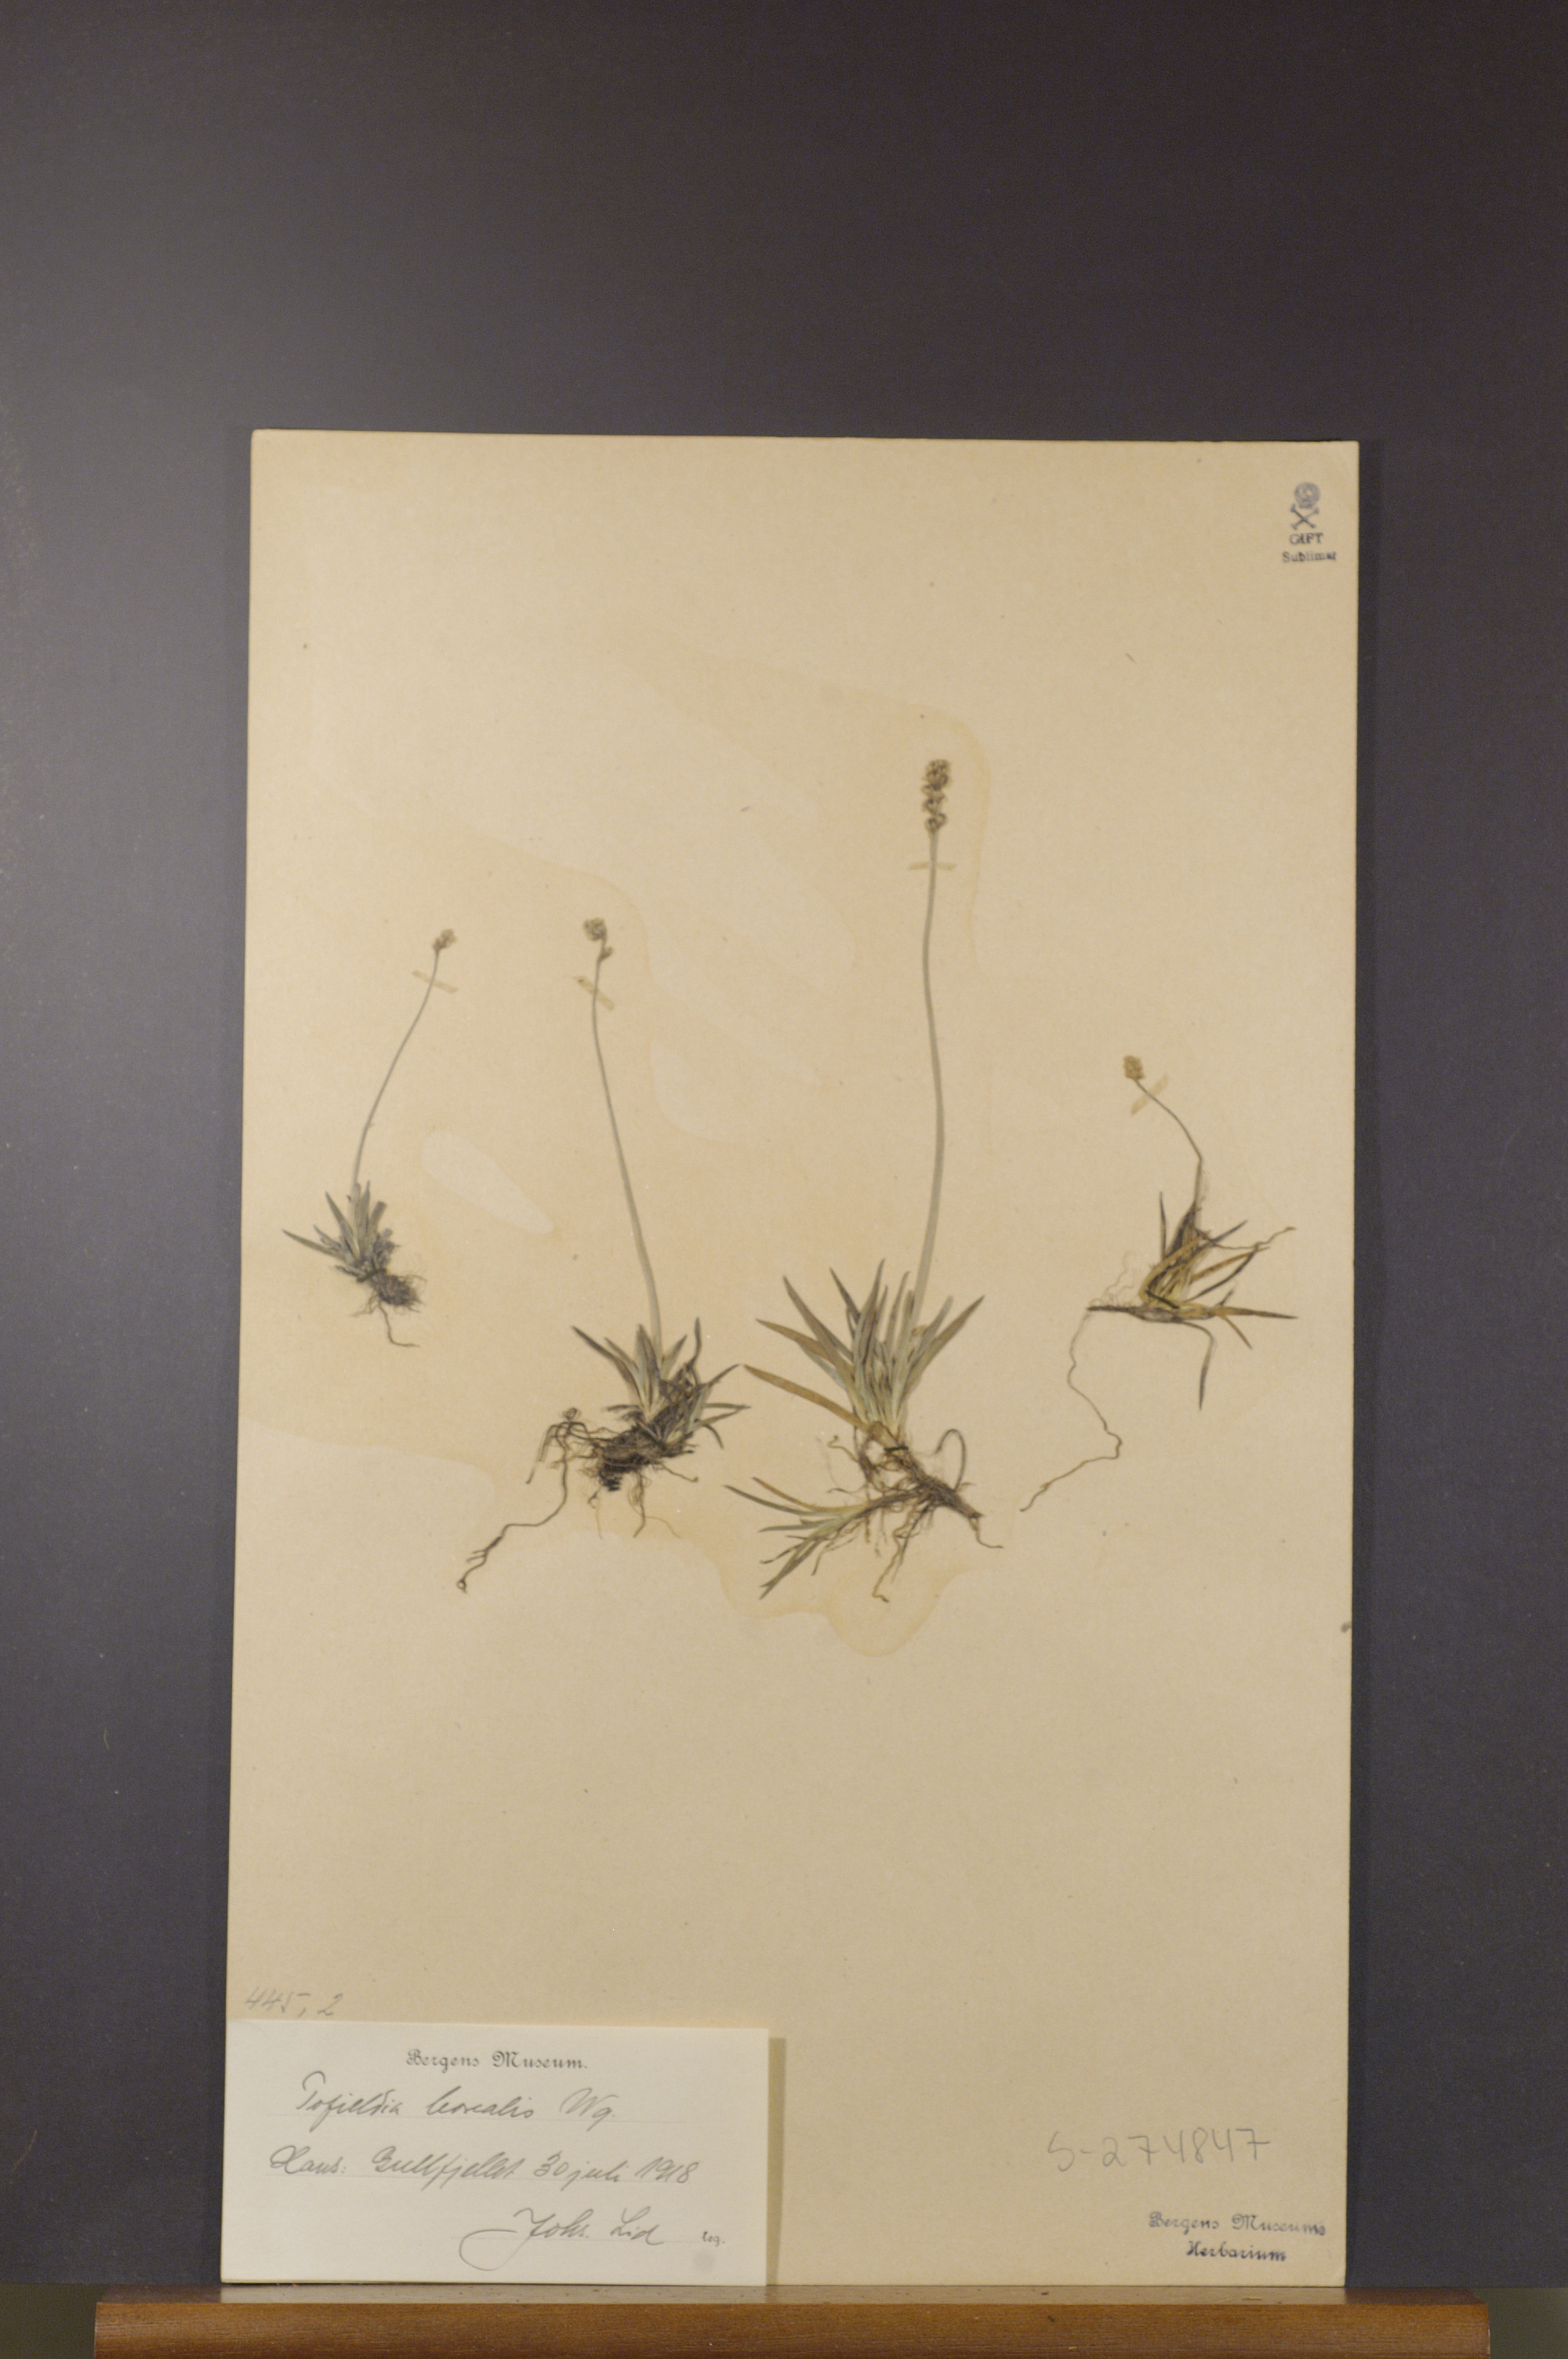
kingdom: Plantae
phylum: Tracheophyta
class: Liliopsida
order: Alismatales
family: Tofieldiaceae
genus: Tofieldia
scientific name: Tofieldia pusilla
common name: Scottish false asphodel
